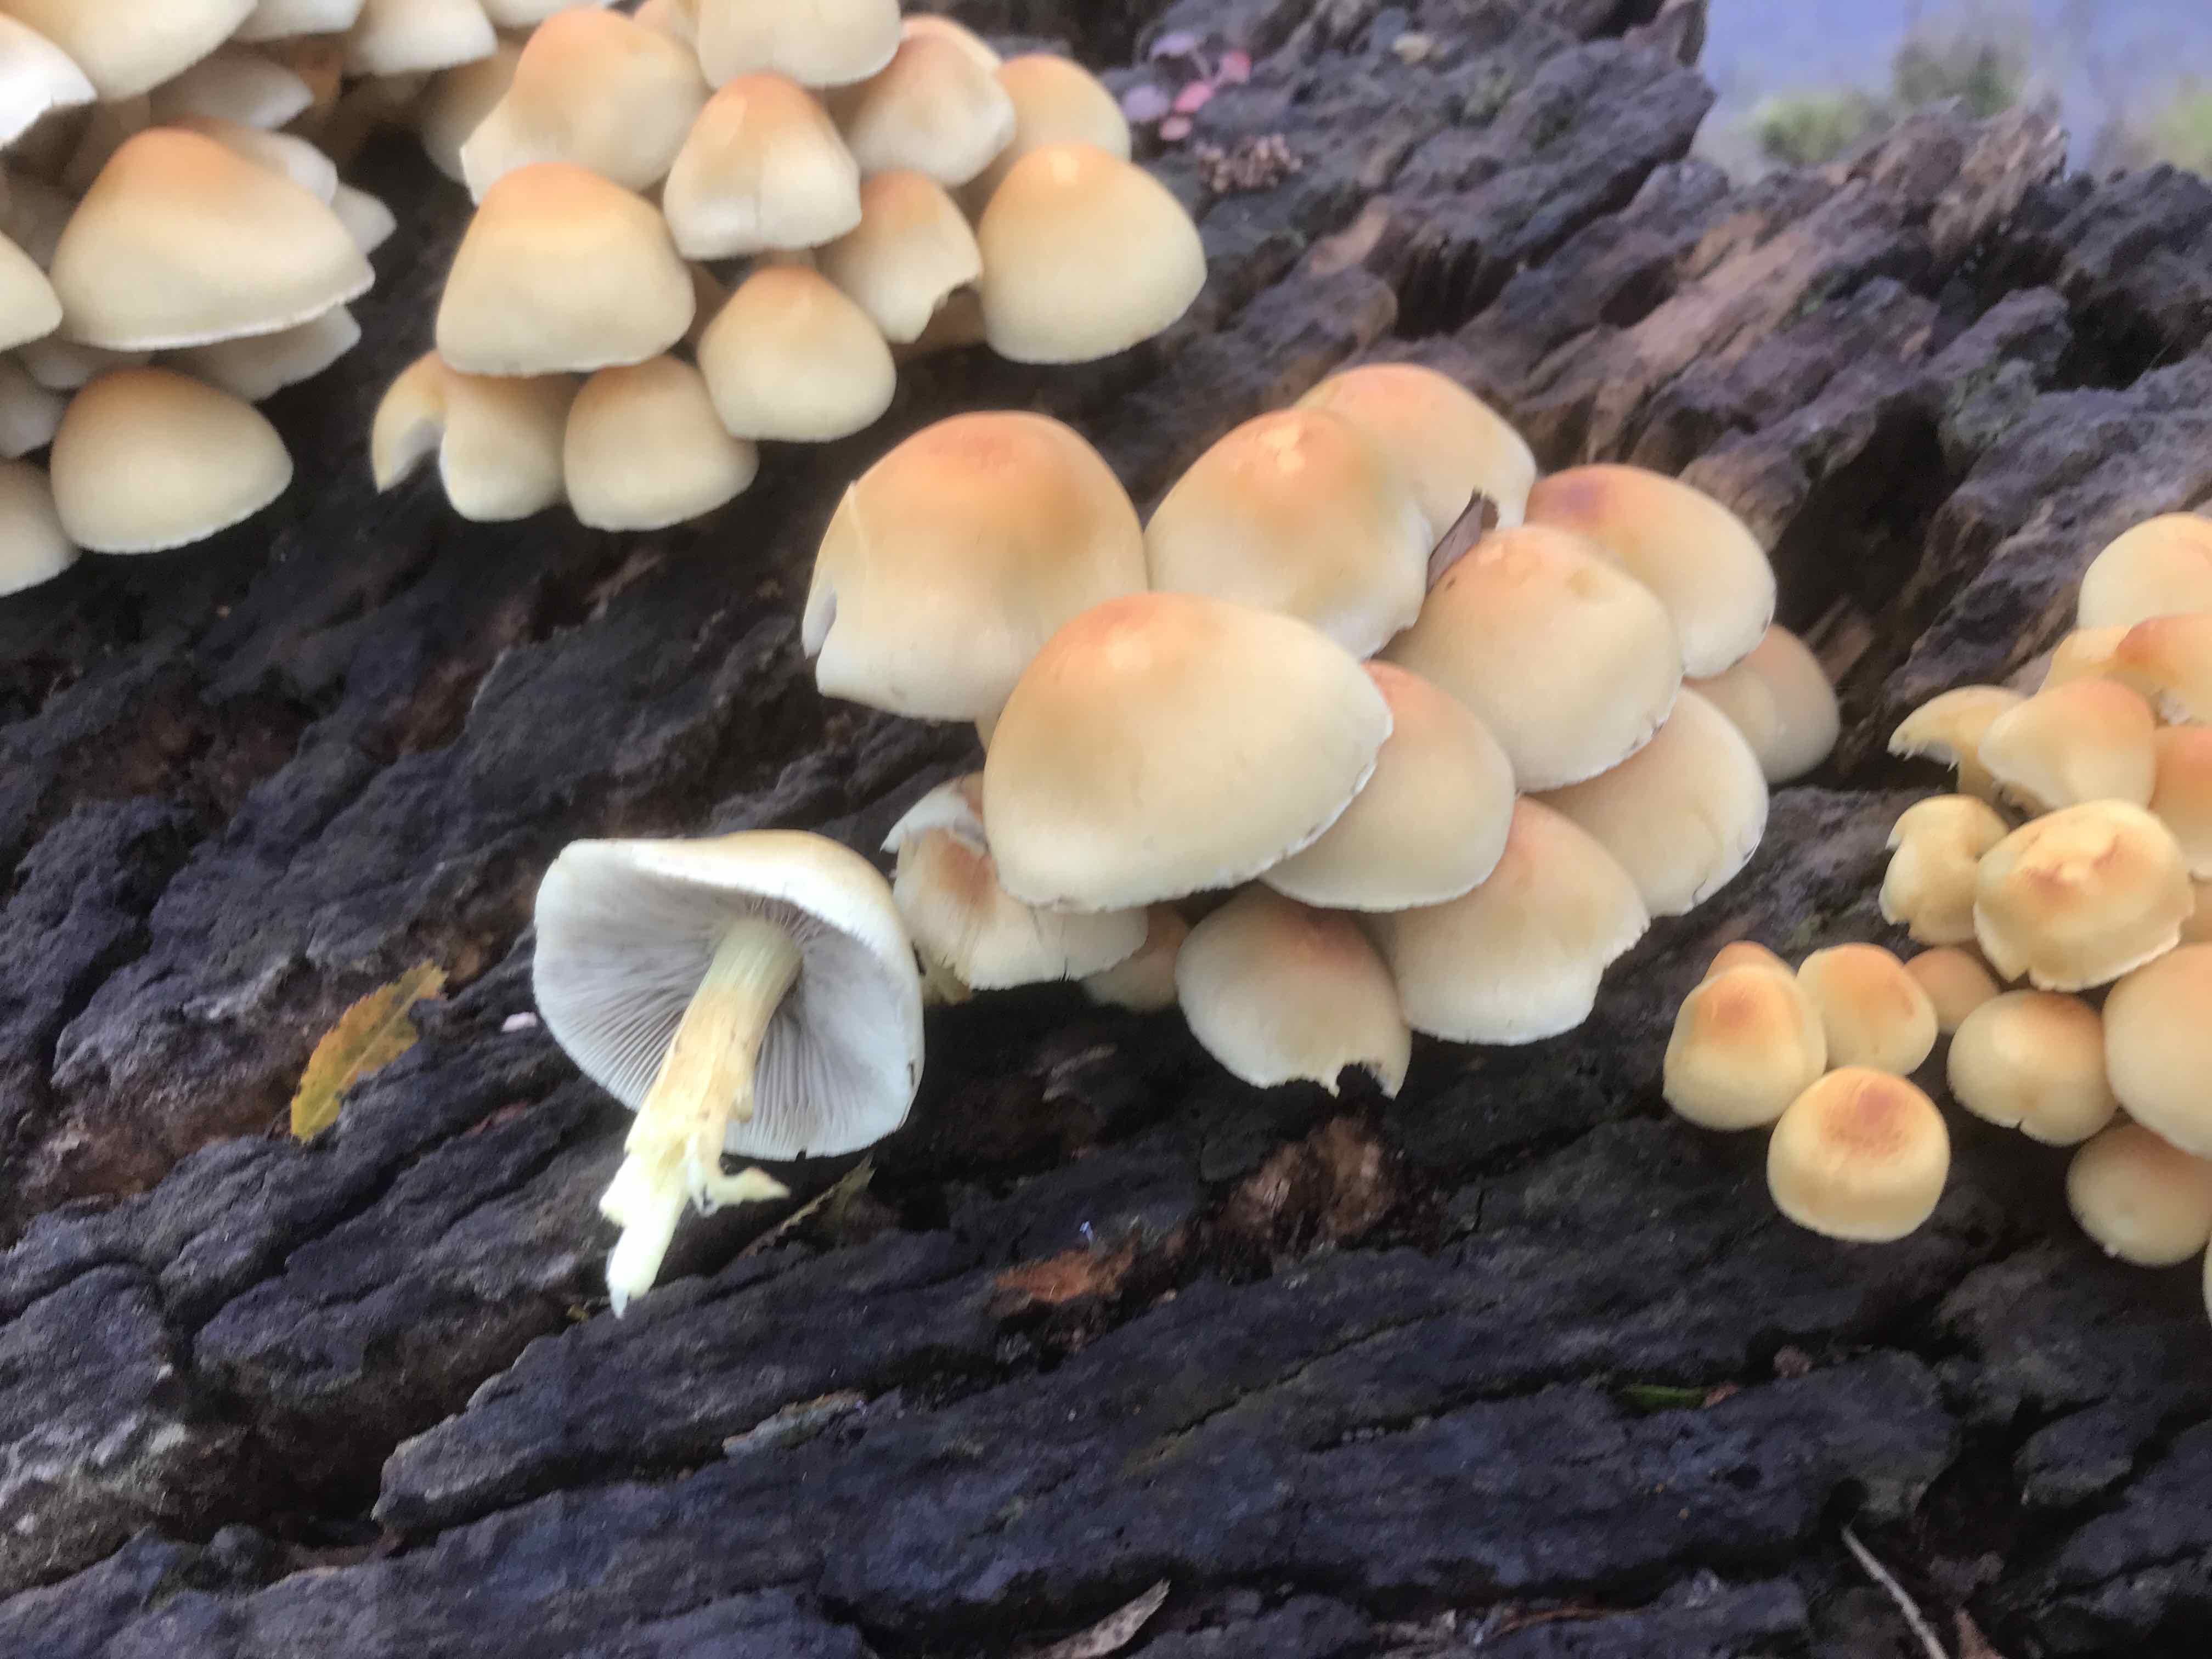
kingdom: Fungi
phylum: Basidiomycota
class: Agaricomycetes
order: Agaricales
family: Strophariaceae
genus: Hypholoma
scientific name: Hypholoma fasciculare
